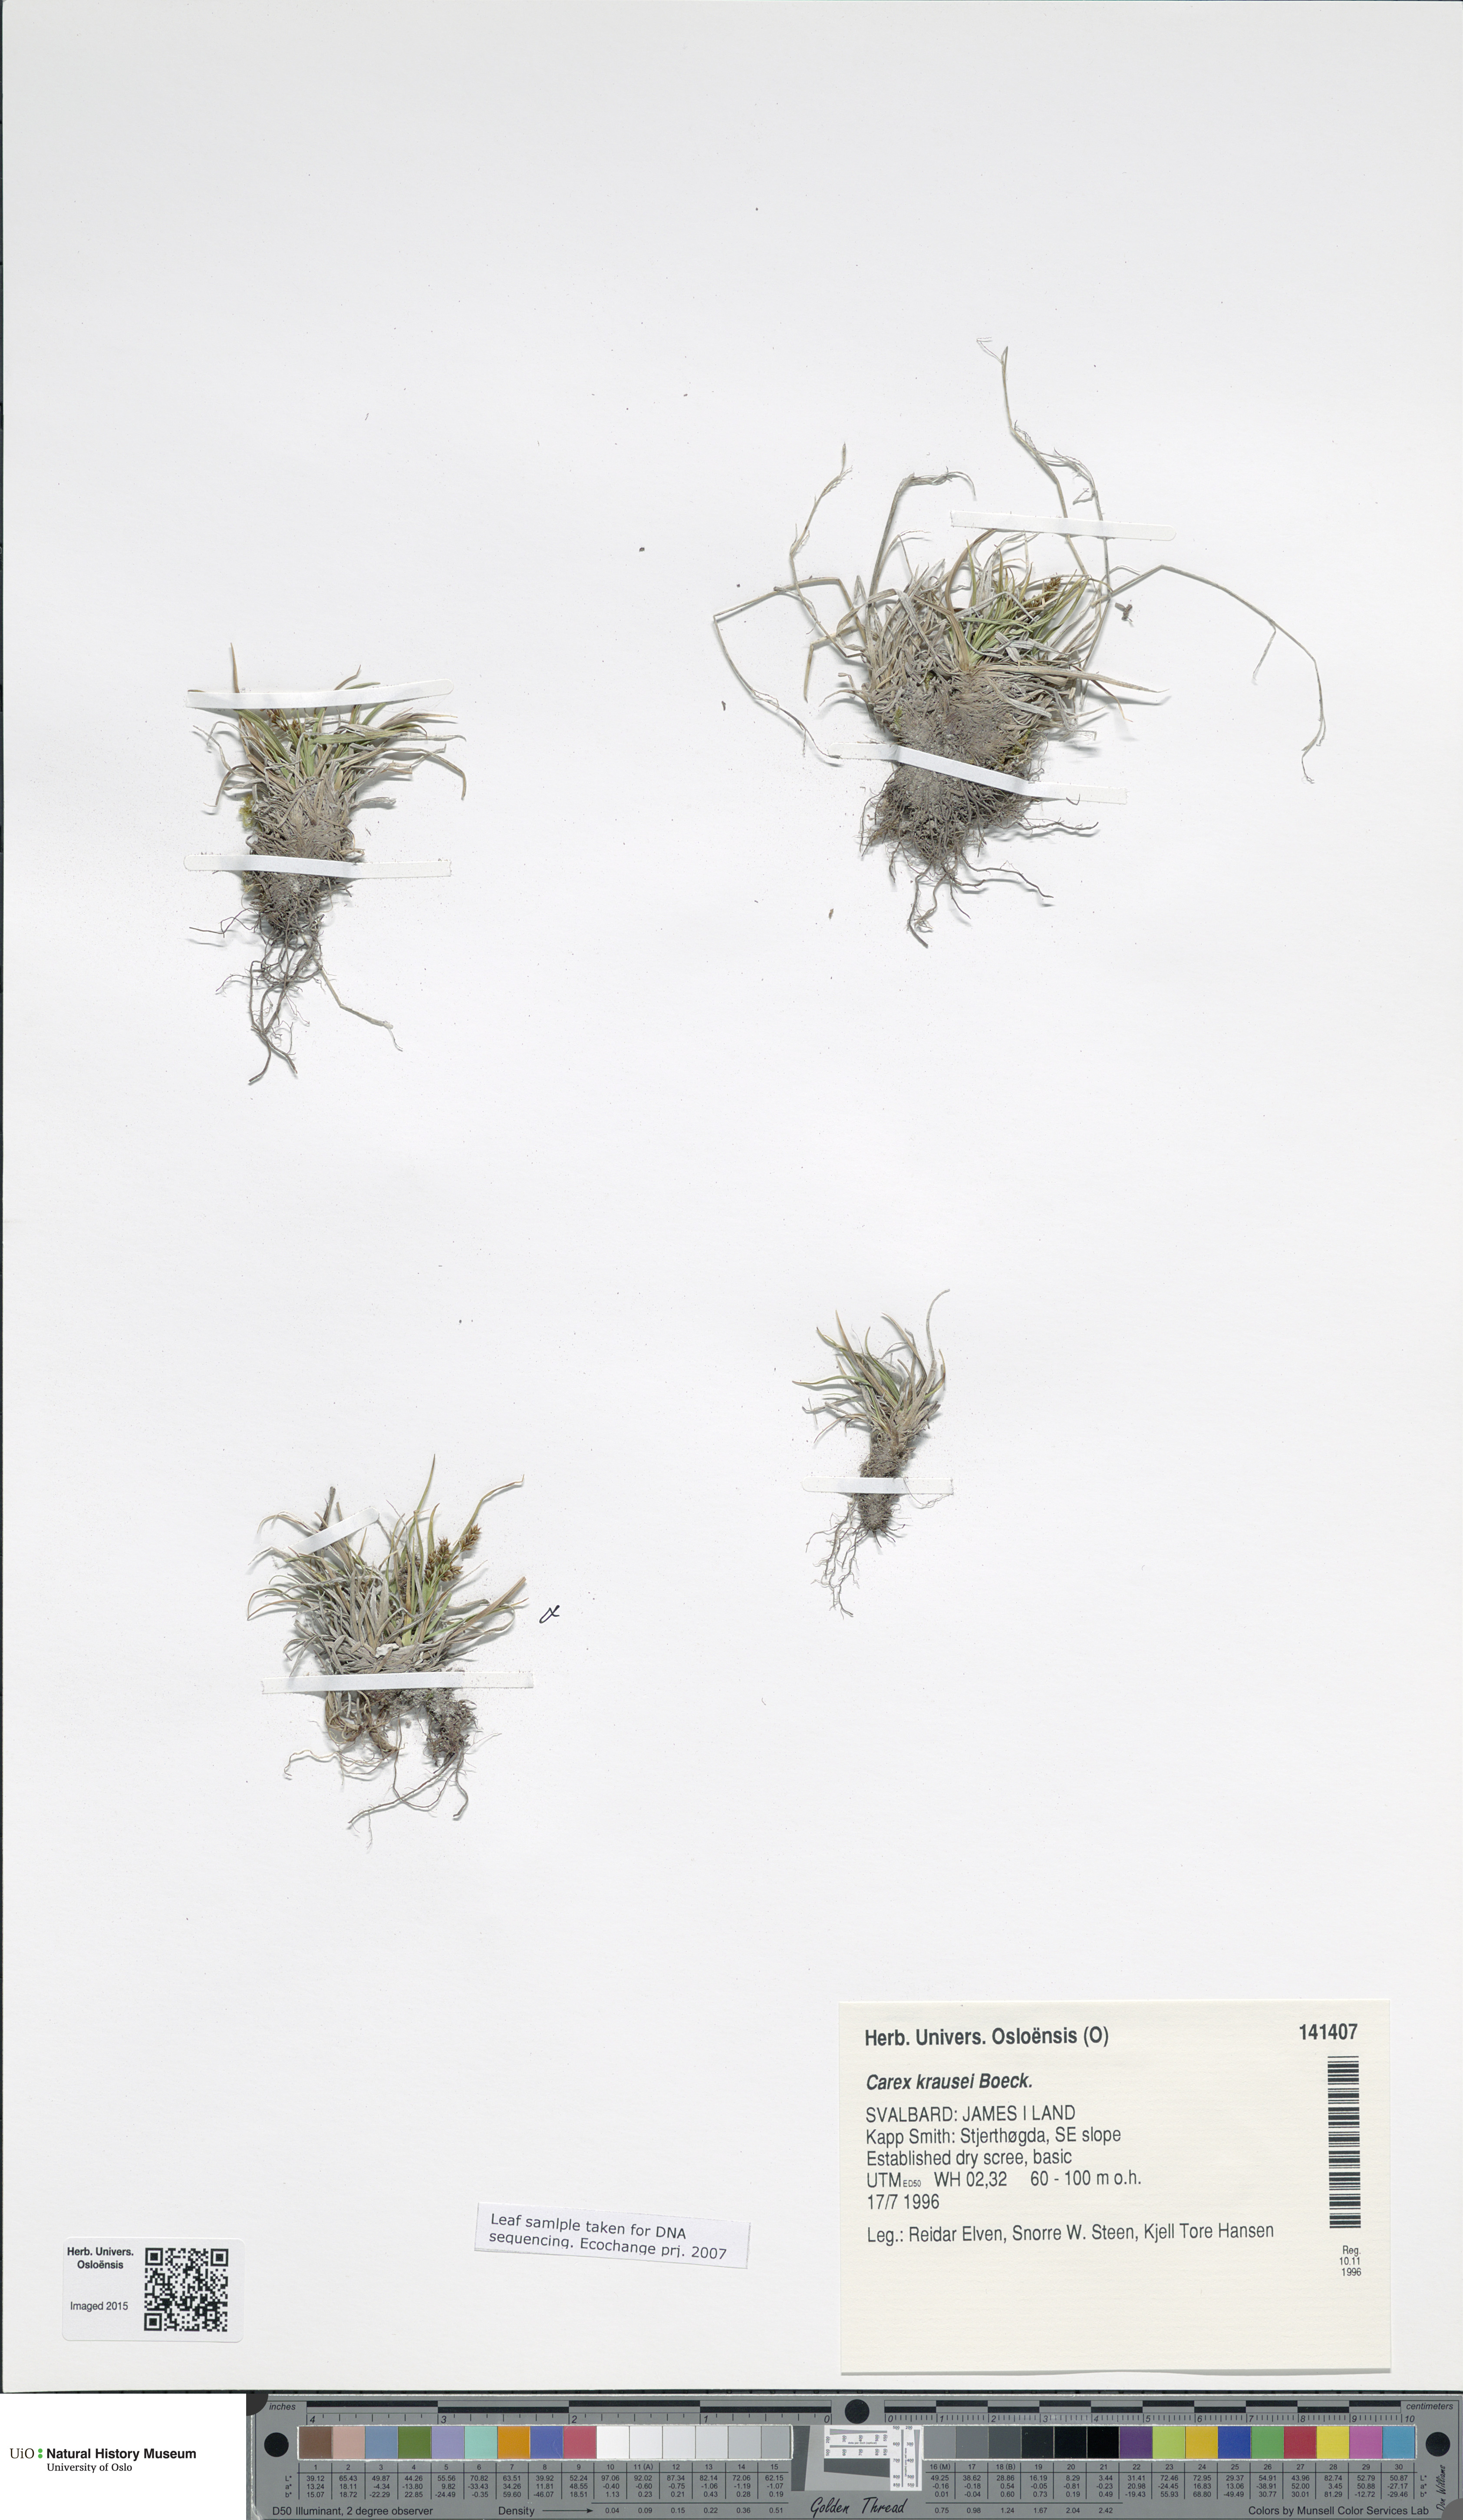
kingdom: Plantae
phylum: Tracheophyta
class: Liliopsida
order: Poales
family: Cyperaceae
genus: Carex
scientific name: Carex krausei
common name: Krause's sedge
